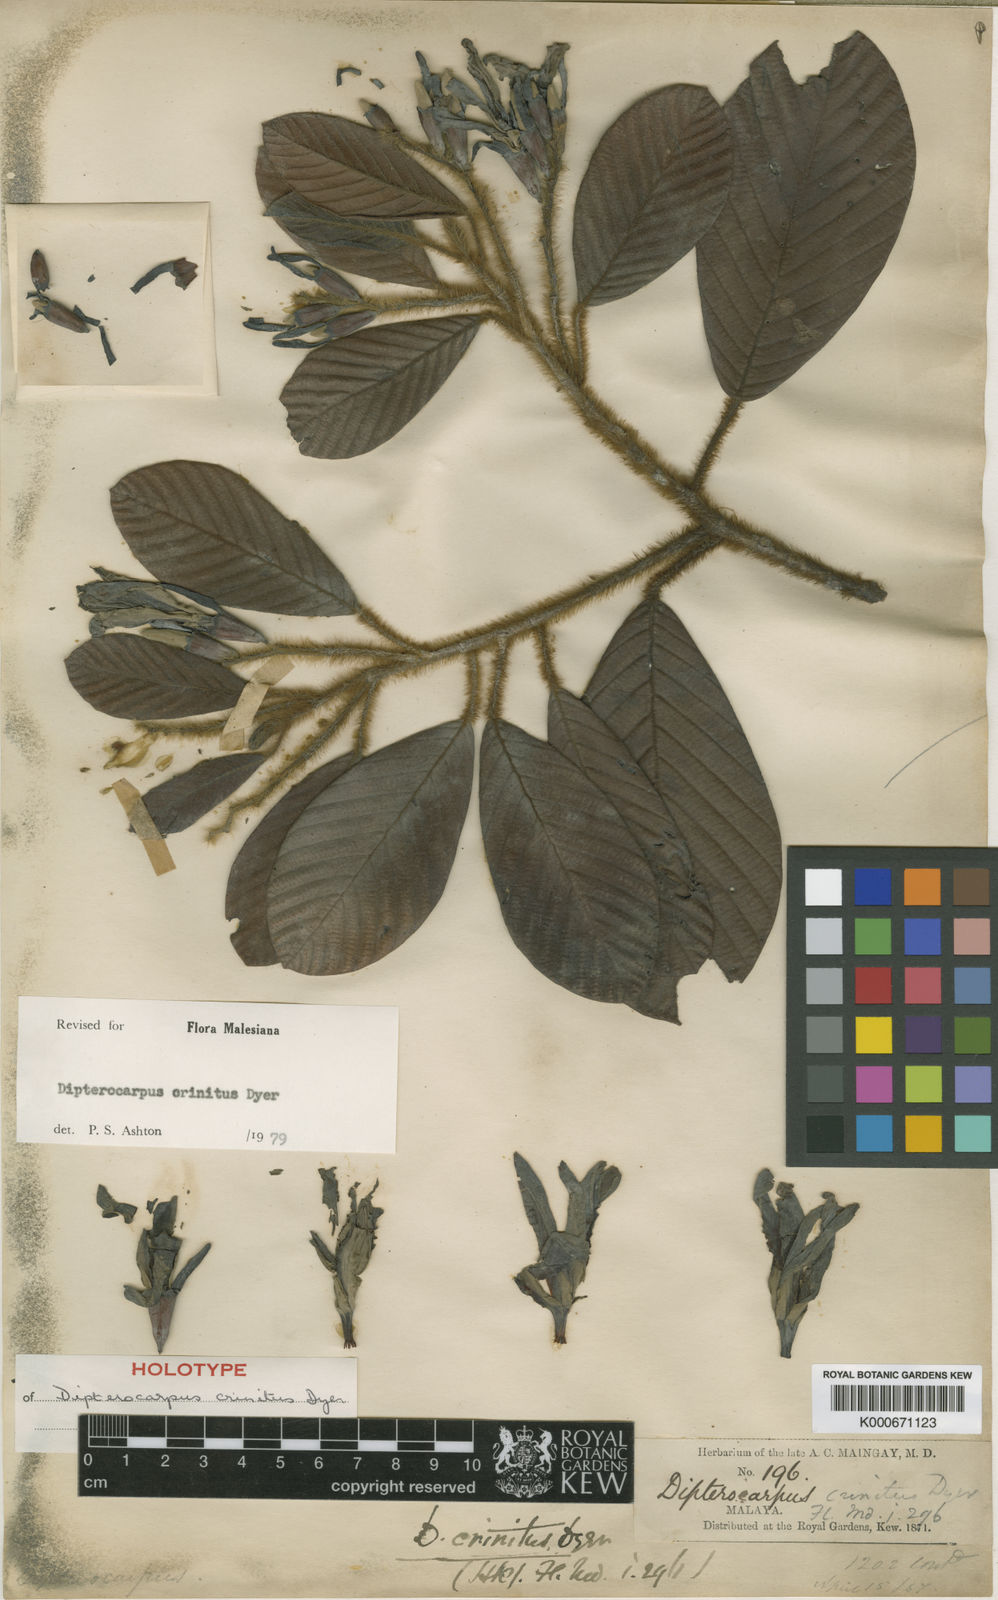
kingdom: Plantae
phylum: Tracheophyta
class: Magnoliopsida
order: Malvales
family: Dipterocarpaceae
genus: Dipterocarpus
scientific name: Dipterocarpus crinitus
